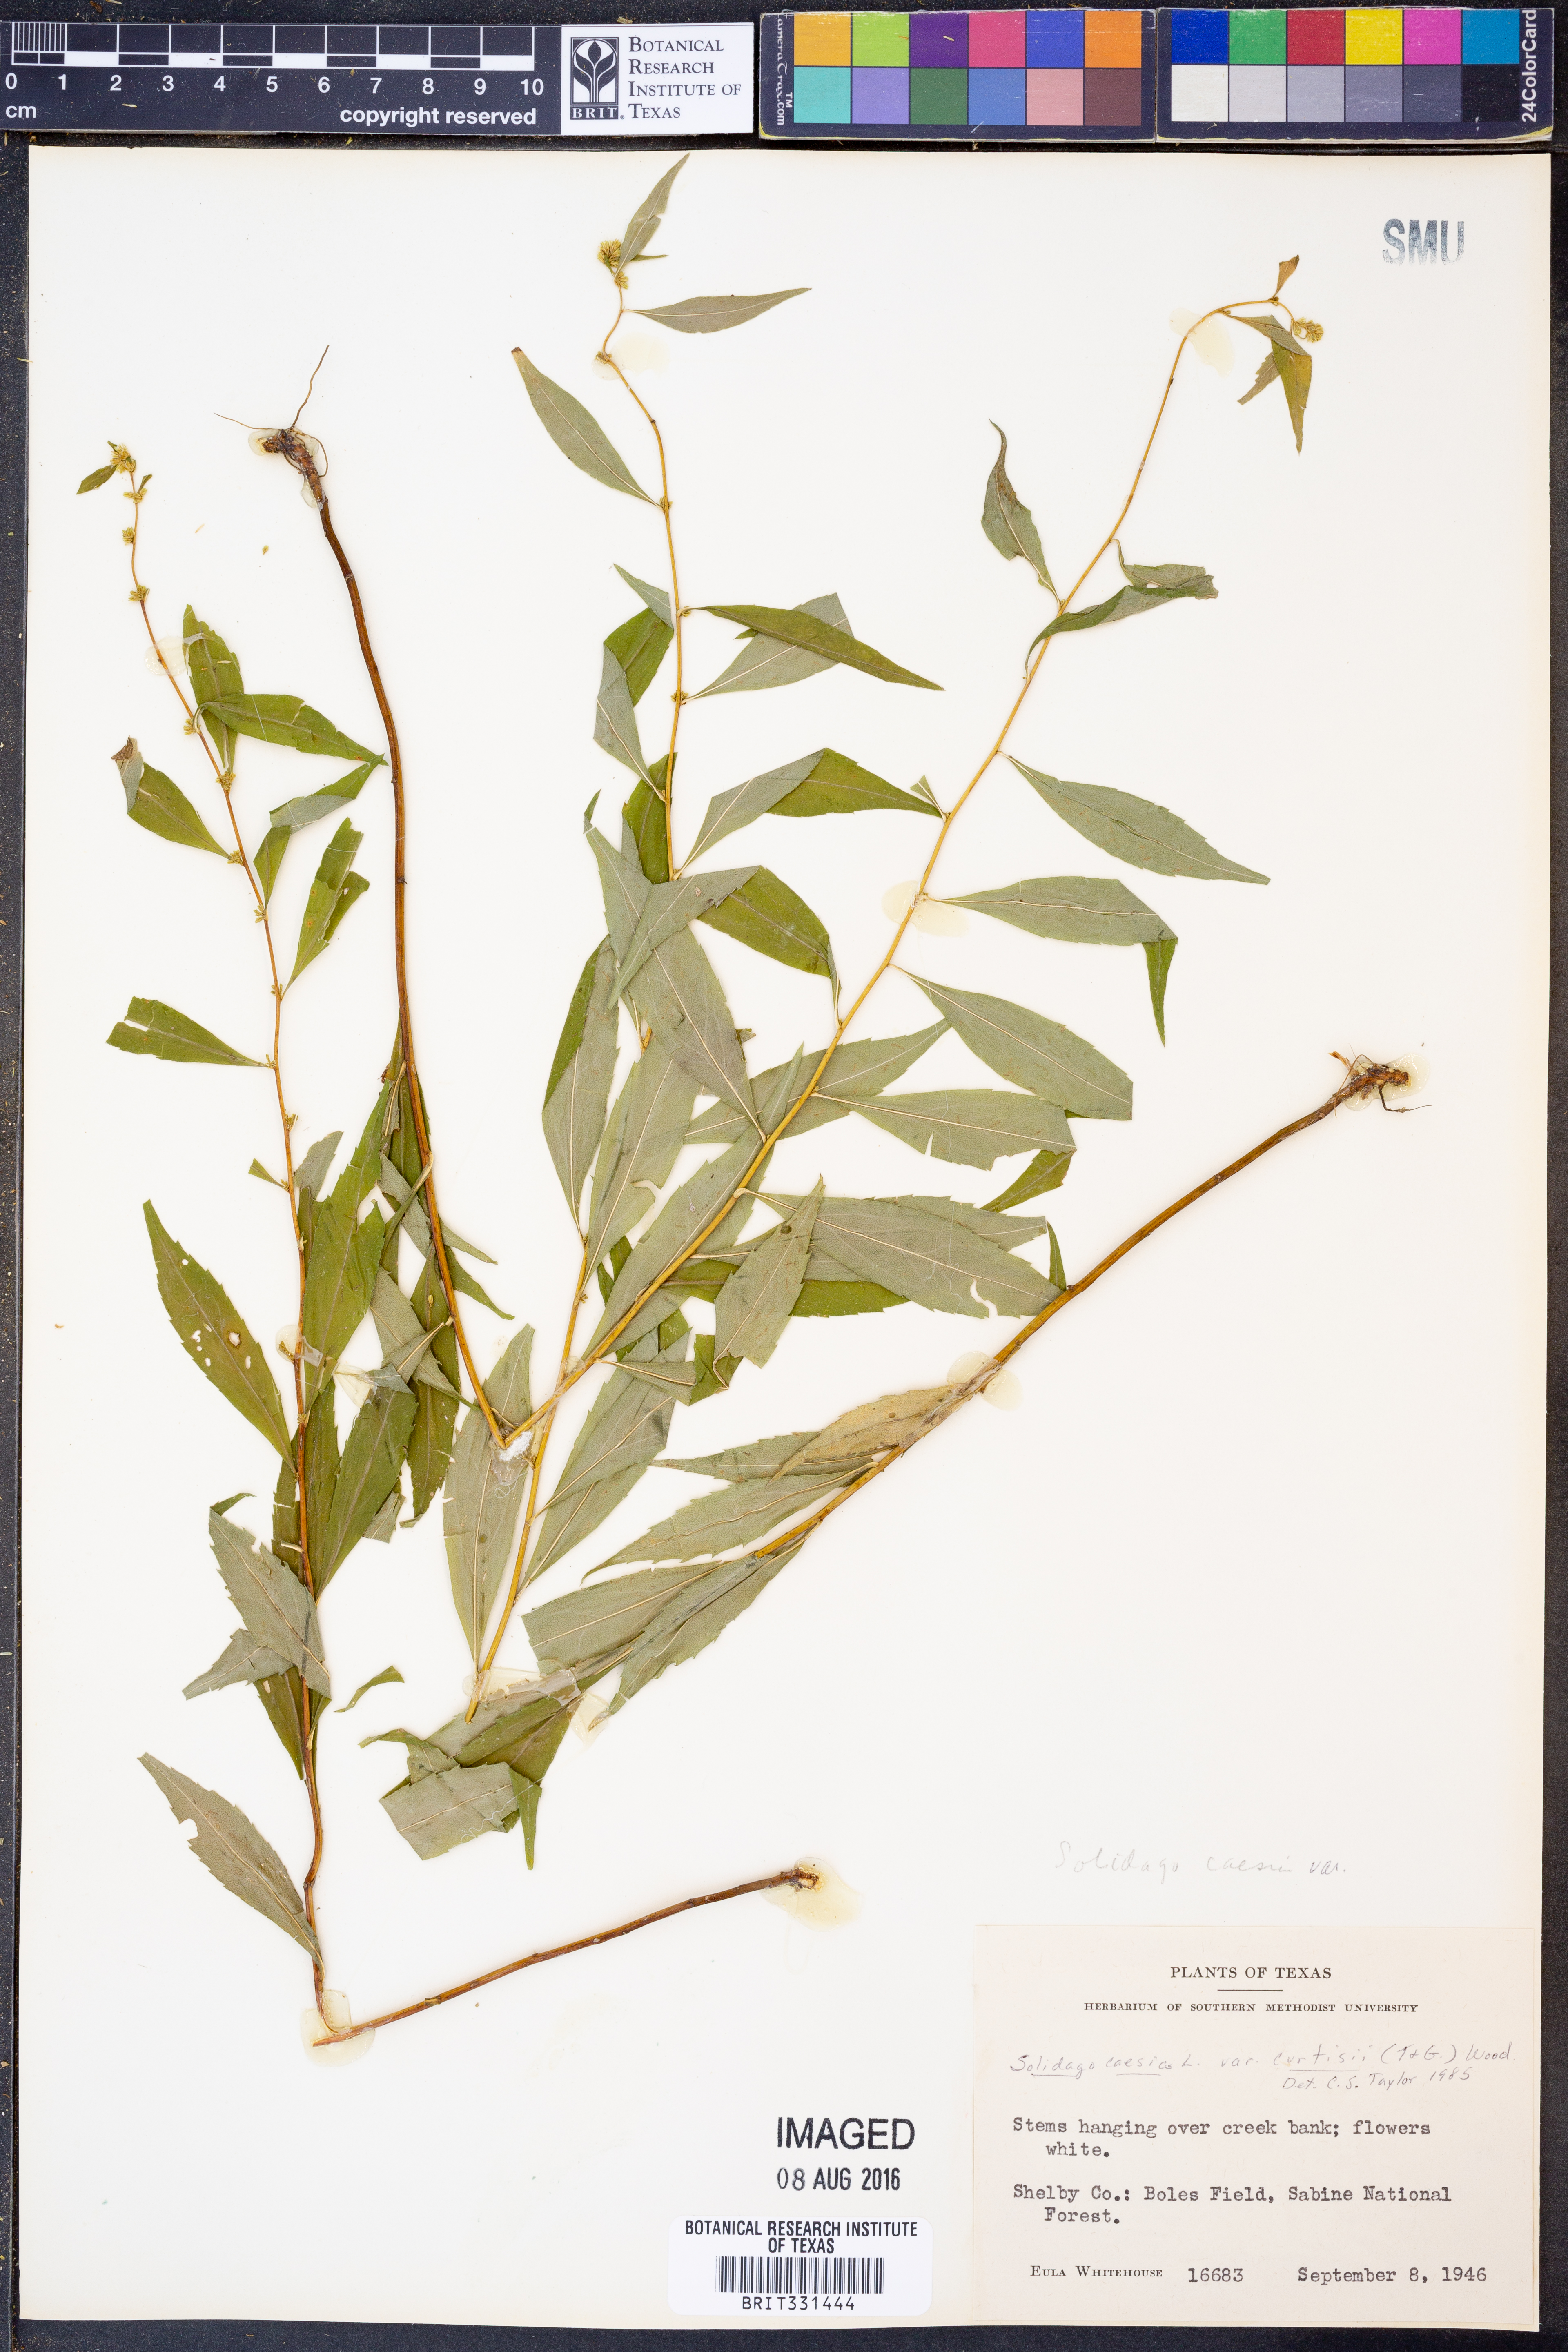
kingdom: Plantae
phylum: Tracheophyta
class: Magnoliopsida
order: Asterales
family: Asteraceae
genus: Solidago
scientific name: Solidago caesia
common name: Woodland goldenrod
